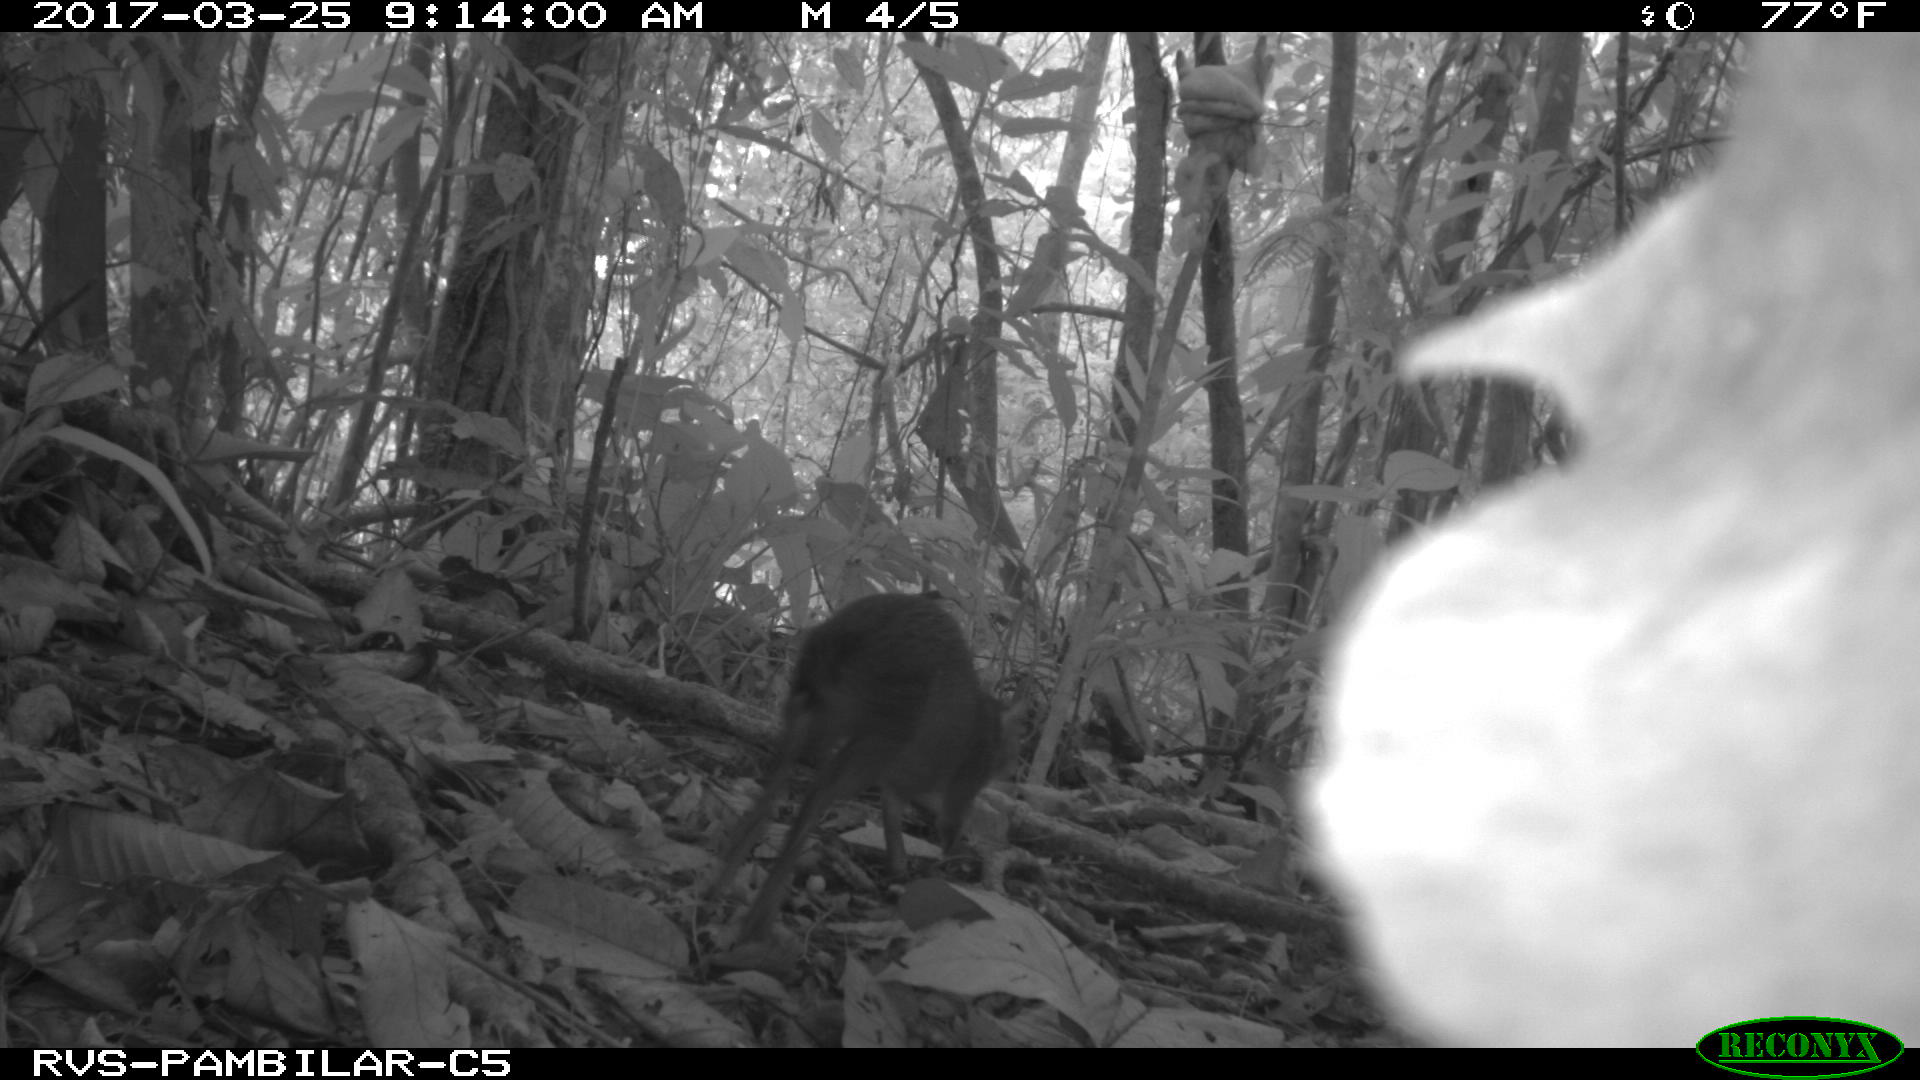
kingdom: Animalia
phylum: Chordata
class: Mammalia
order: Rodentia
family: Dasyproctidae
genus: Dasyprocta
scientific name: Dasyprocta punctata
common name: Central american agouti
